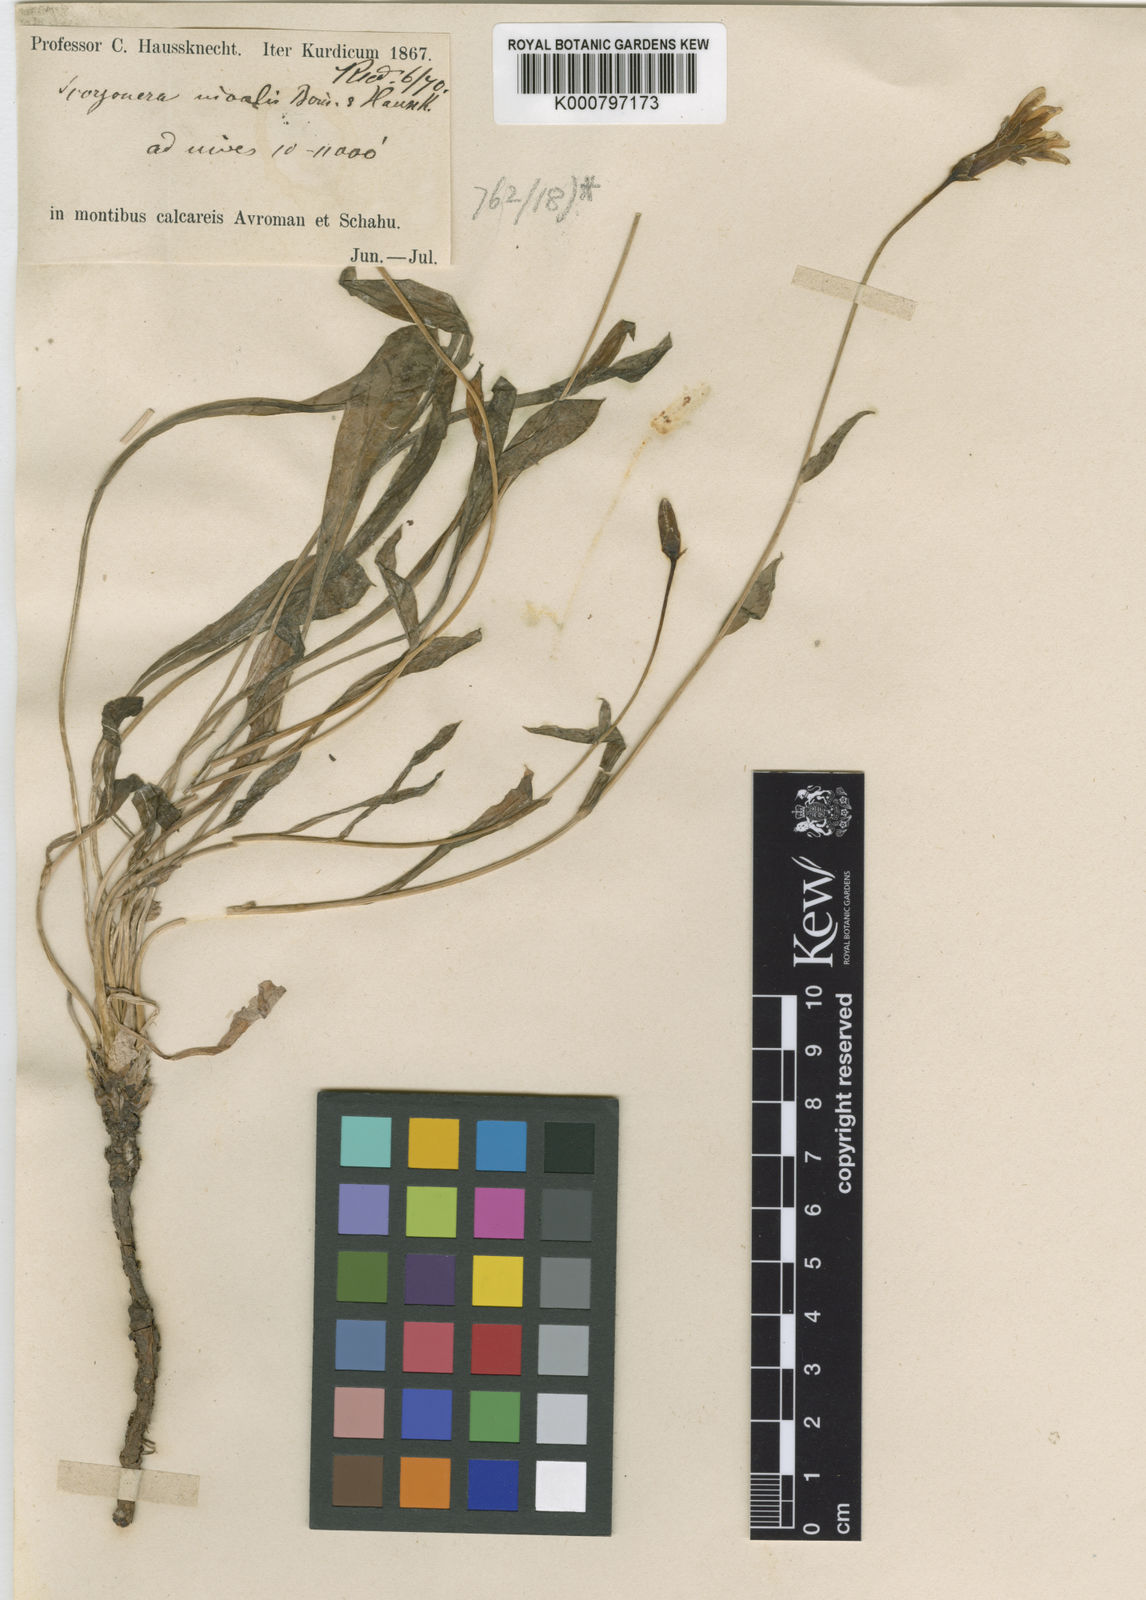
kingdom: Plantae
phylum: Tracheophyta
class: Magnoliopsida
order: Asterales
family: Asteraceae
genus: Scorzonera
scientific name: Scorzonera nivalis
